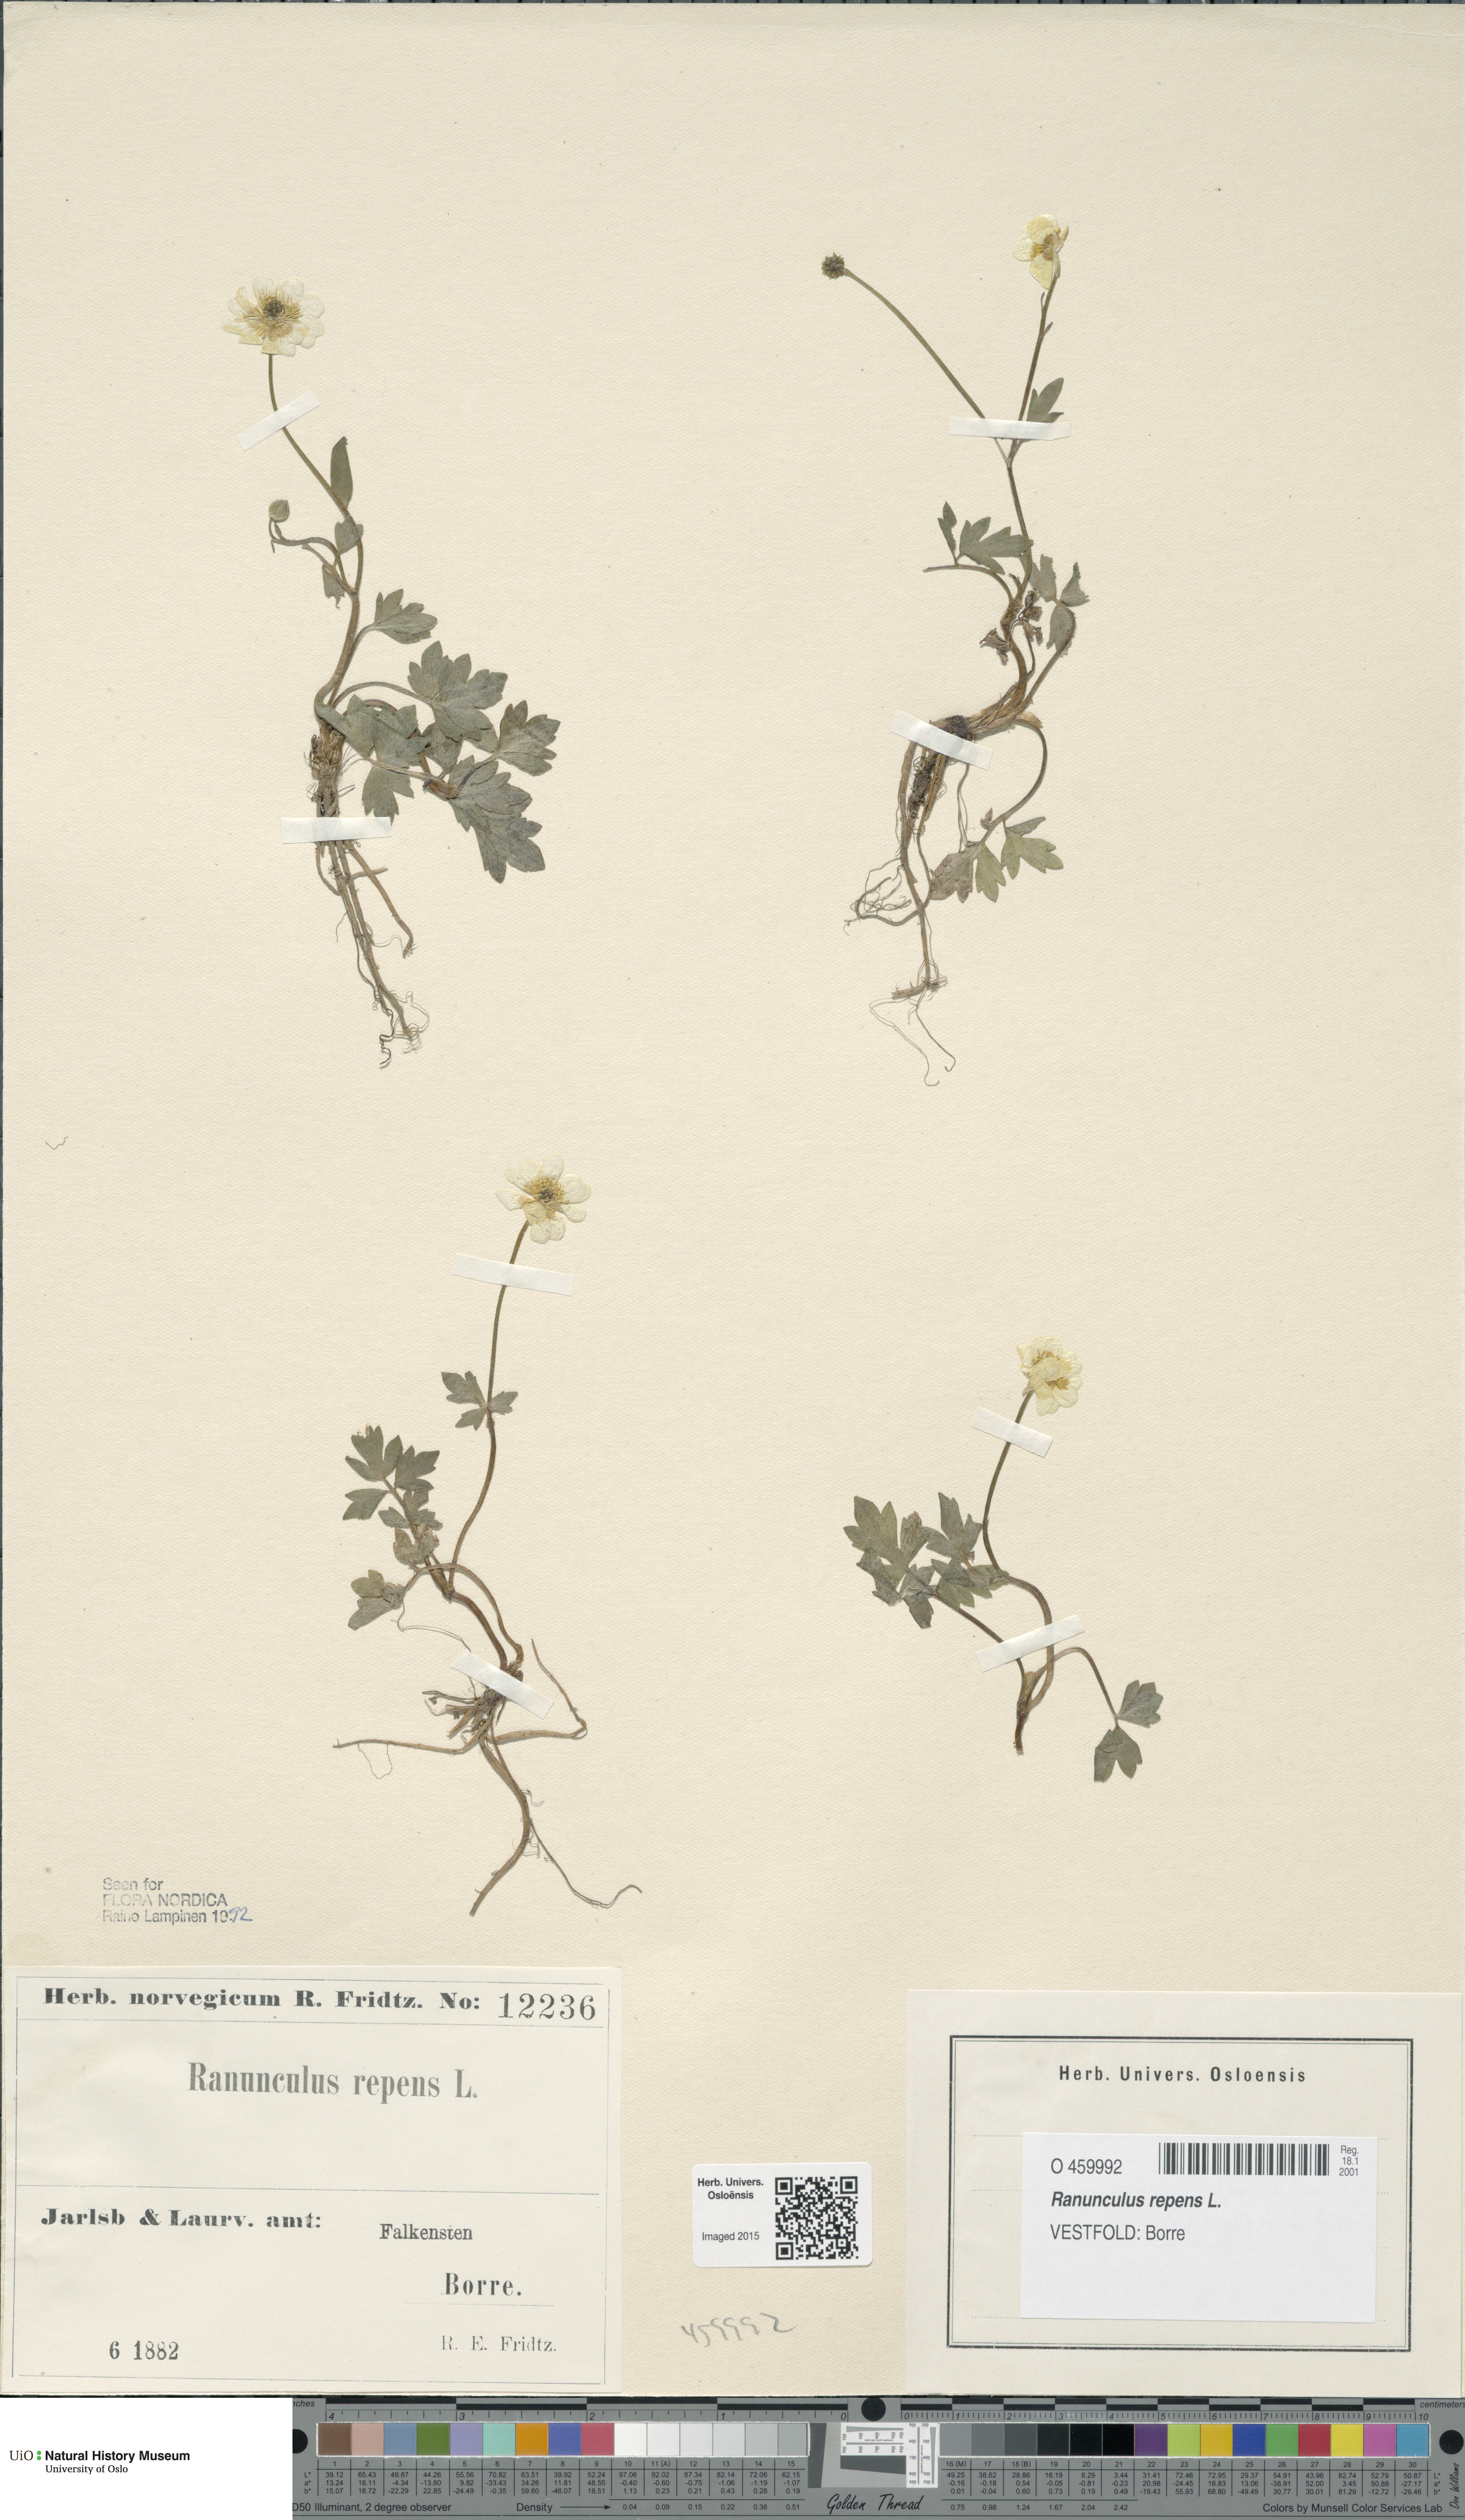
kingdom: Plantae
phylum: Tracheophyta
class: Magnoliopsida
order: Ranunculales
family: Ranunculaceae
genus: Ranunculus
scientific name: Ranunculus repens
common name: Creeping buttercup
